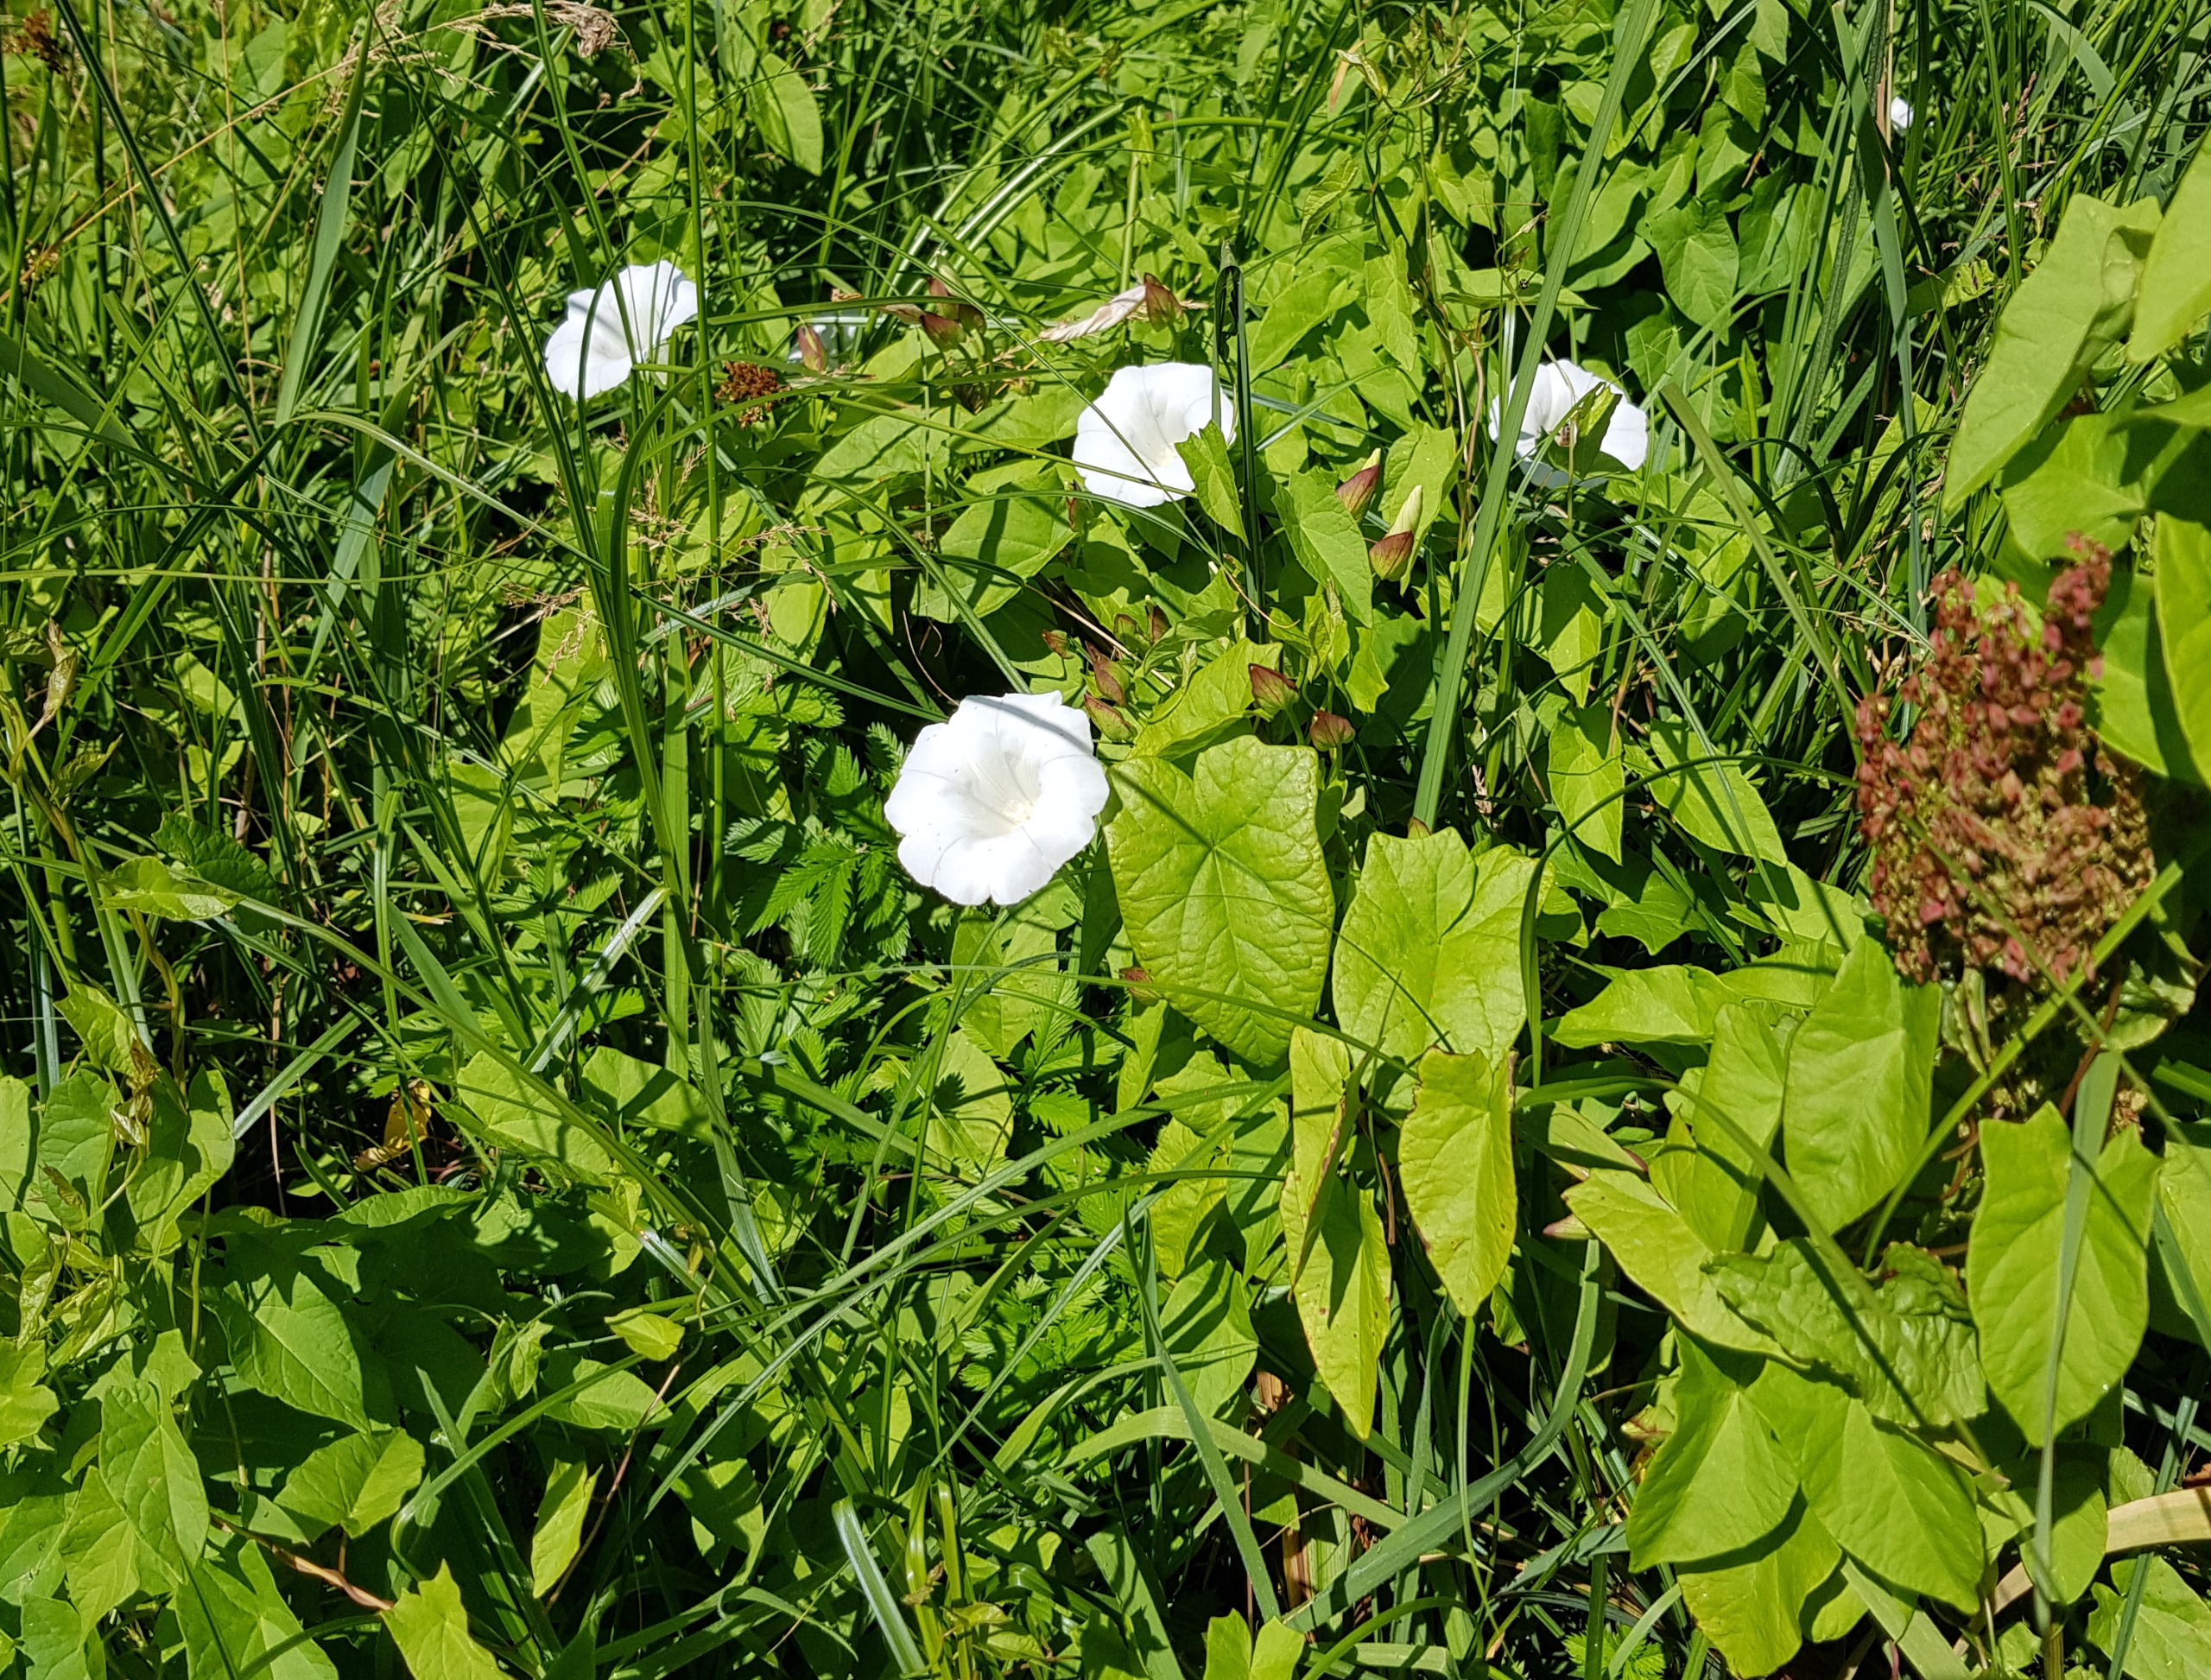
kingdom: Plantae
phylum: Tracheophyta
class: Magnoliopsida
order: Solanales
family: Convolvulaceae
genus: Calystegia
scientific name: Calystegia sepium
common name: Gærde-snerle
